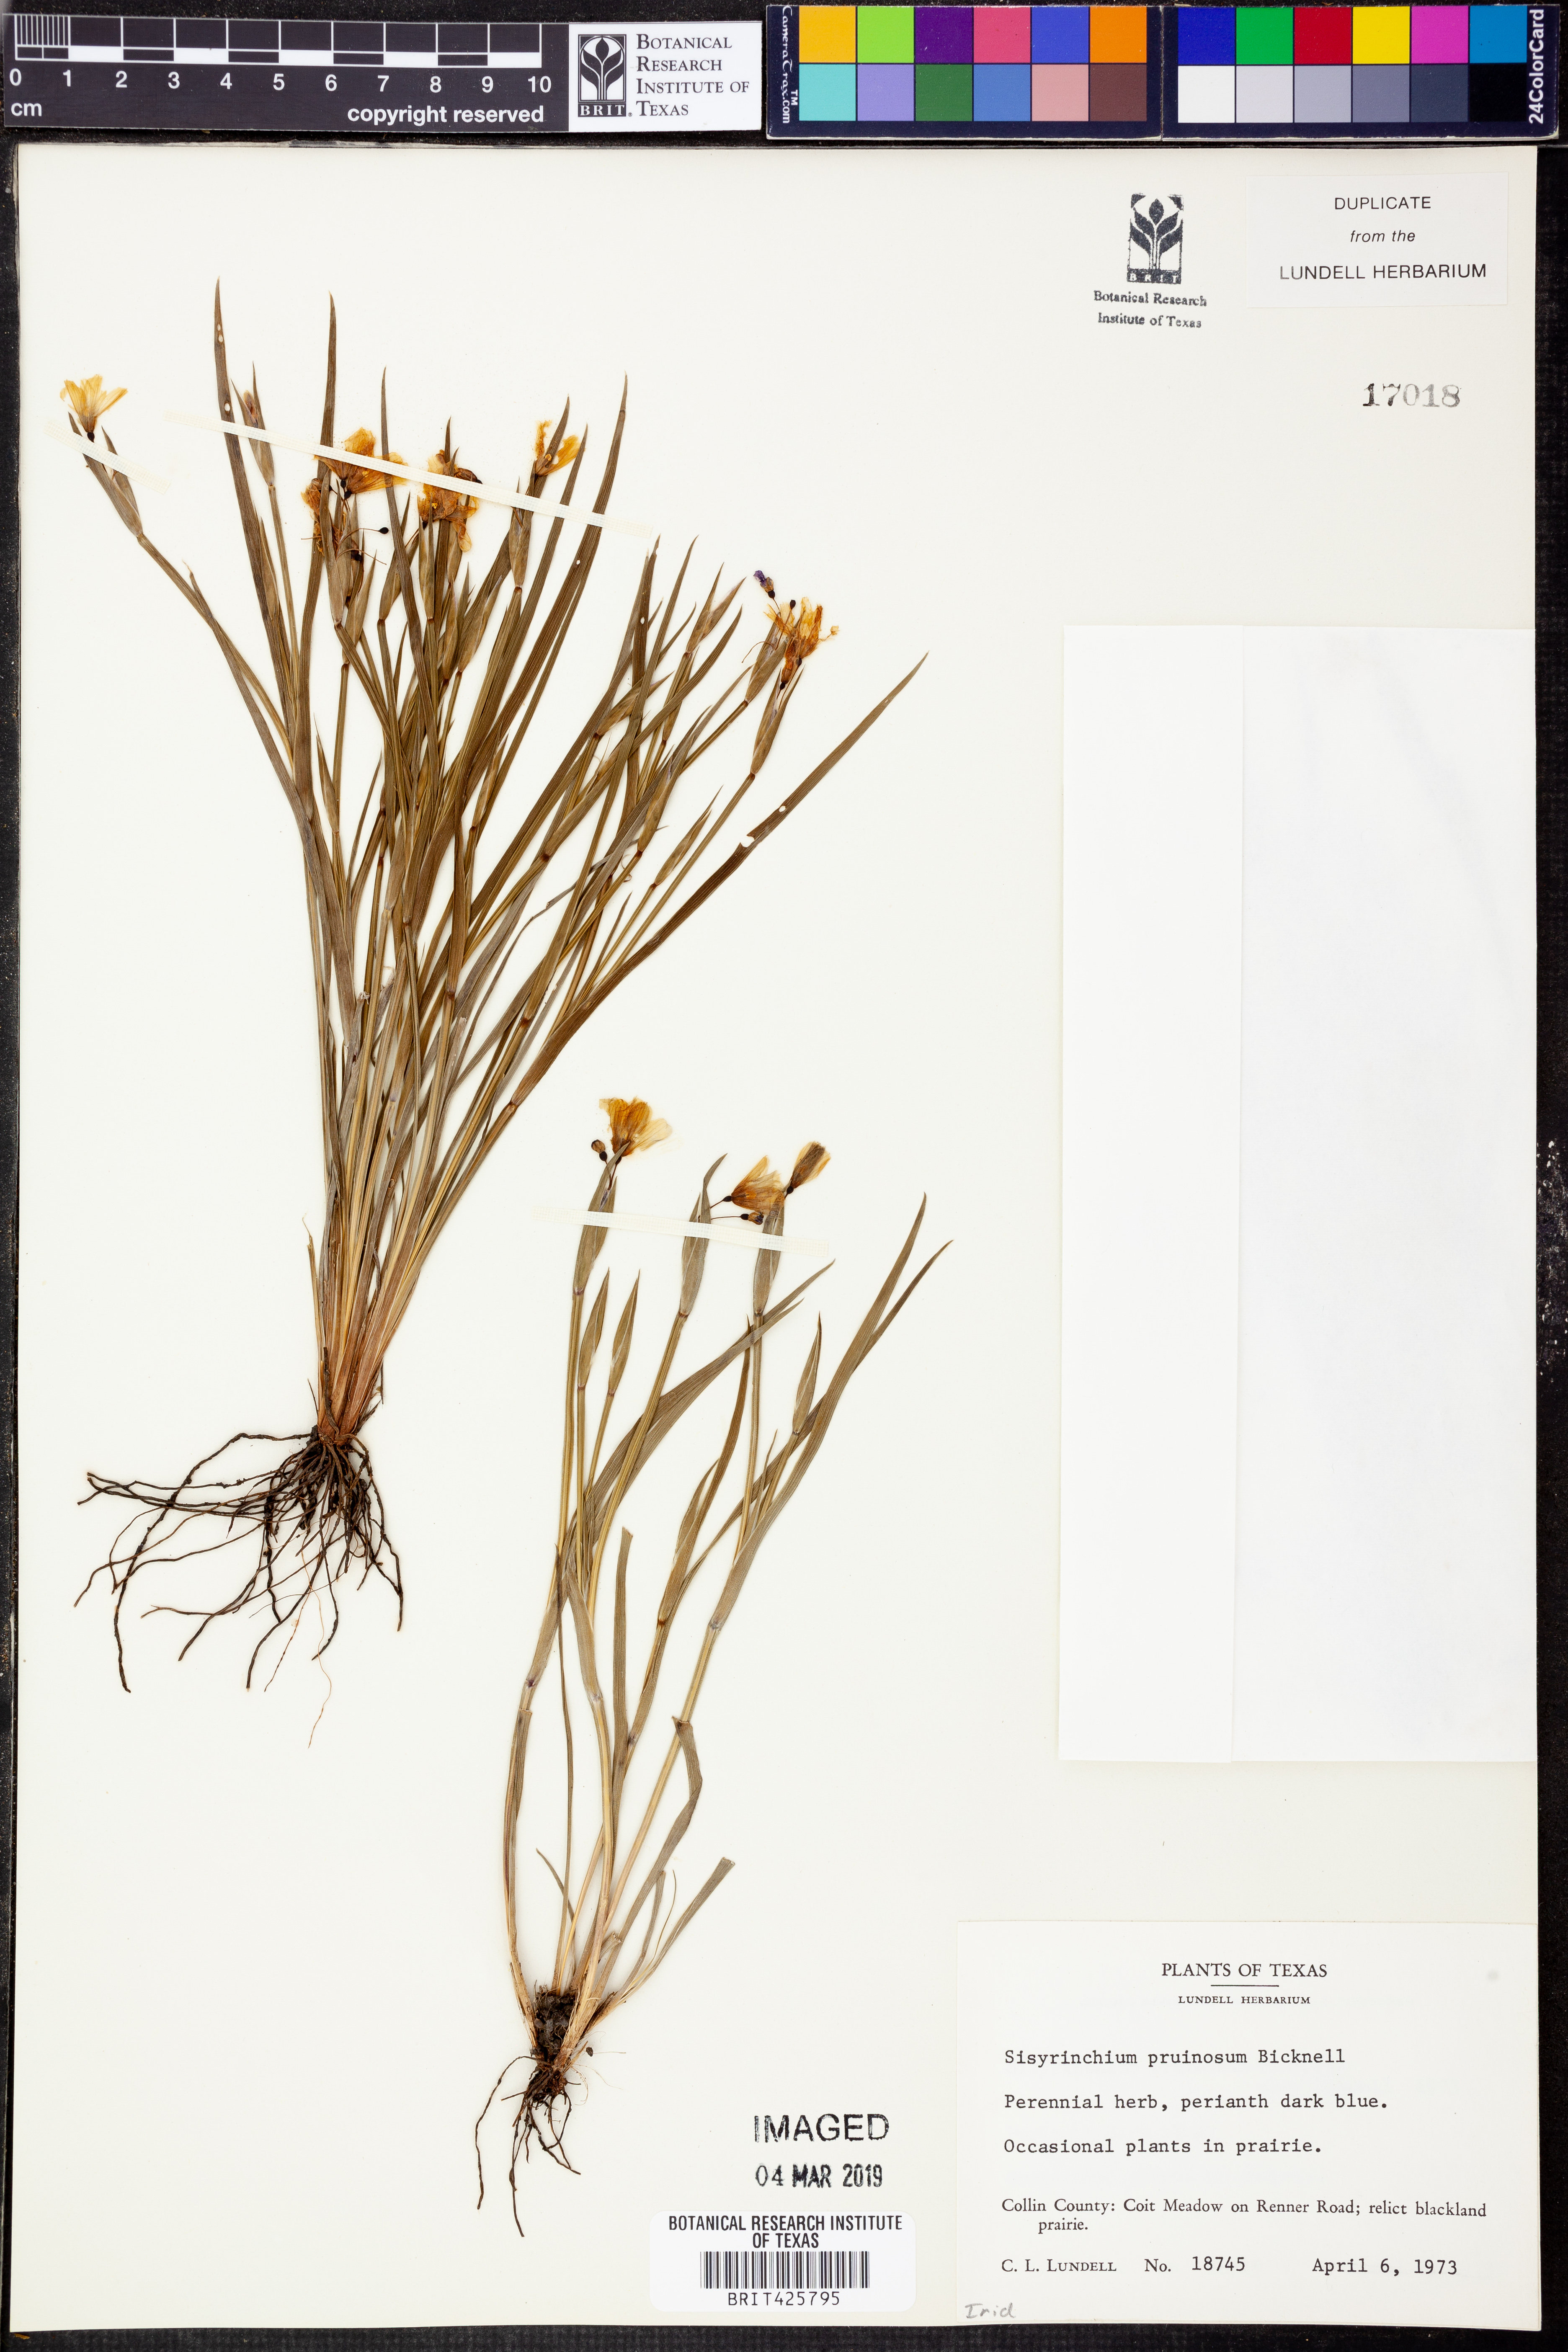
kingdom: Plantae
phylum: Tracheophyta
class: Liliopsida
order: Asparagales
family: Iridaceae
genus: Sisyrinchium
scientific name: Sisyrinchium pruinosum
